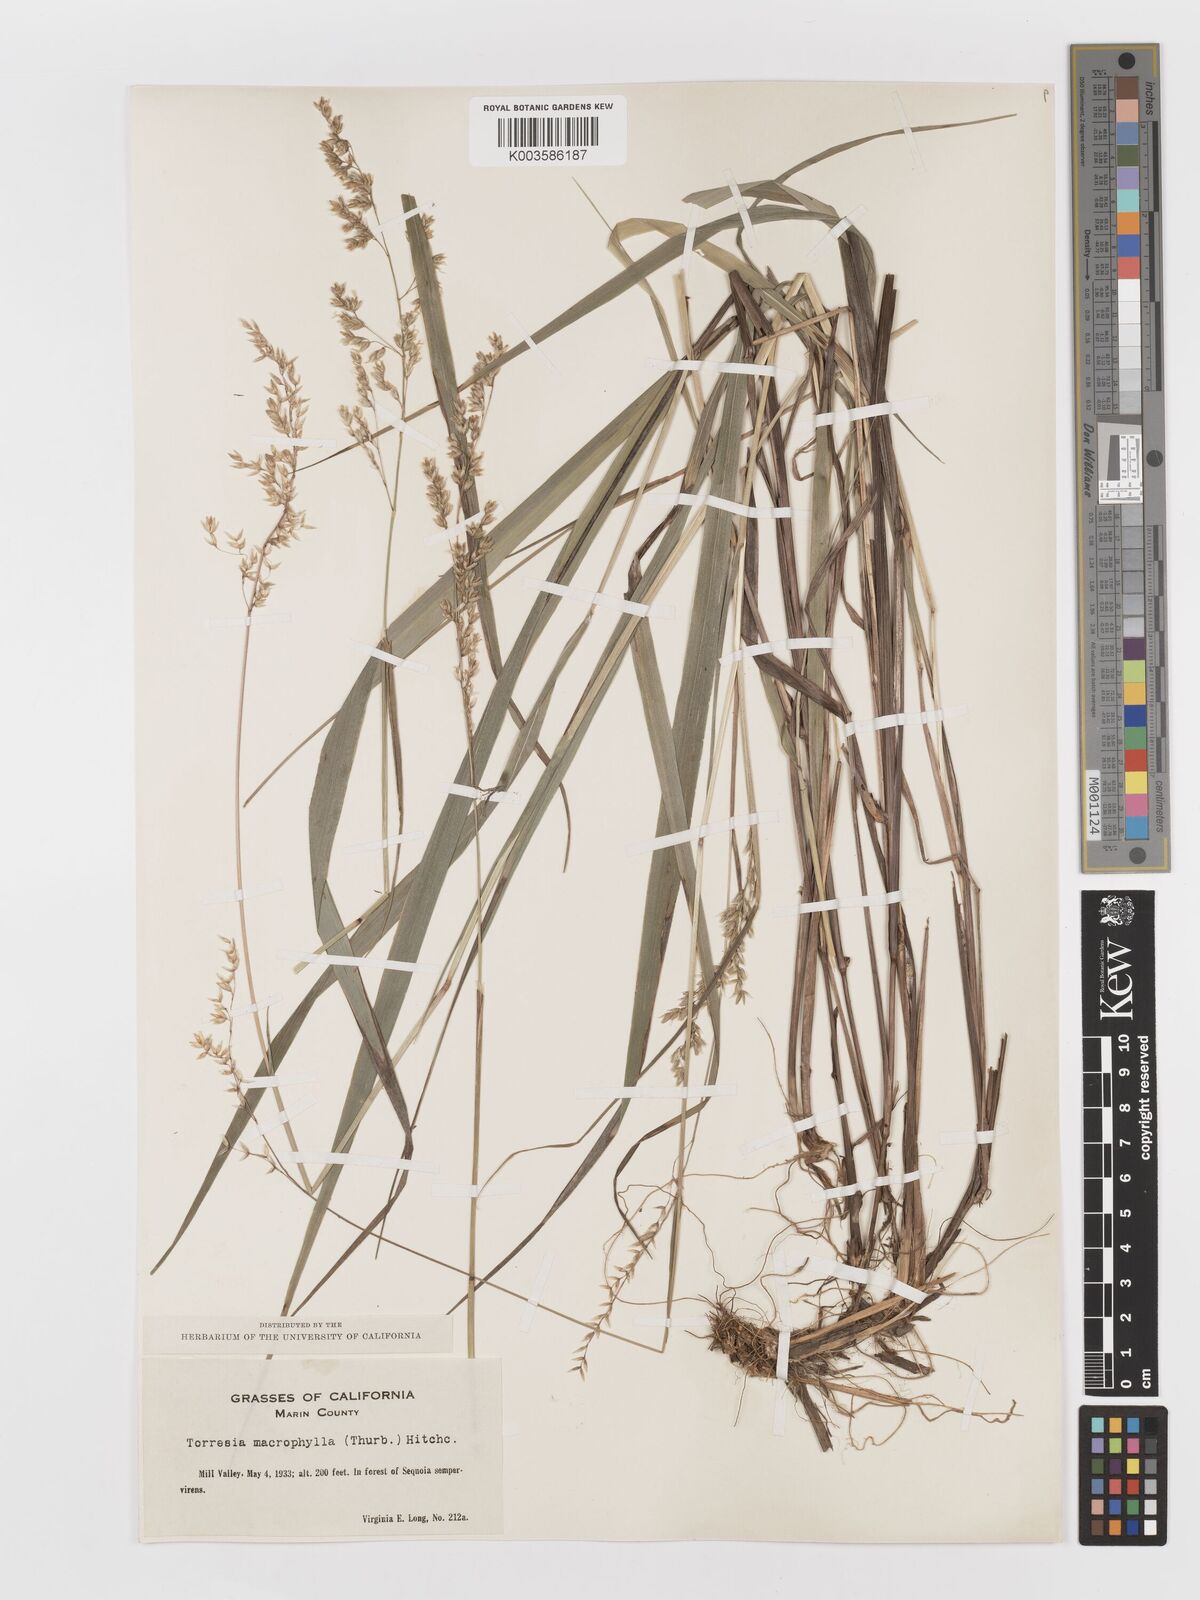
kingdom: Plantae
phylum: Tracheophyta
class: Liliopsida
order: Poales
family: Poaceae
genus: Anthoxanthum
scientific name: Anthoxanthum occidentale
